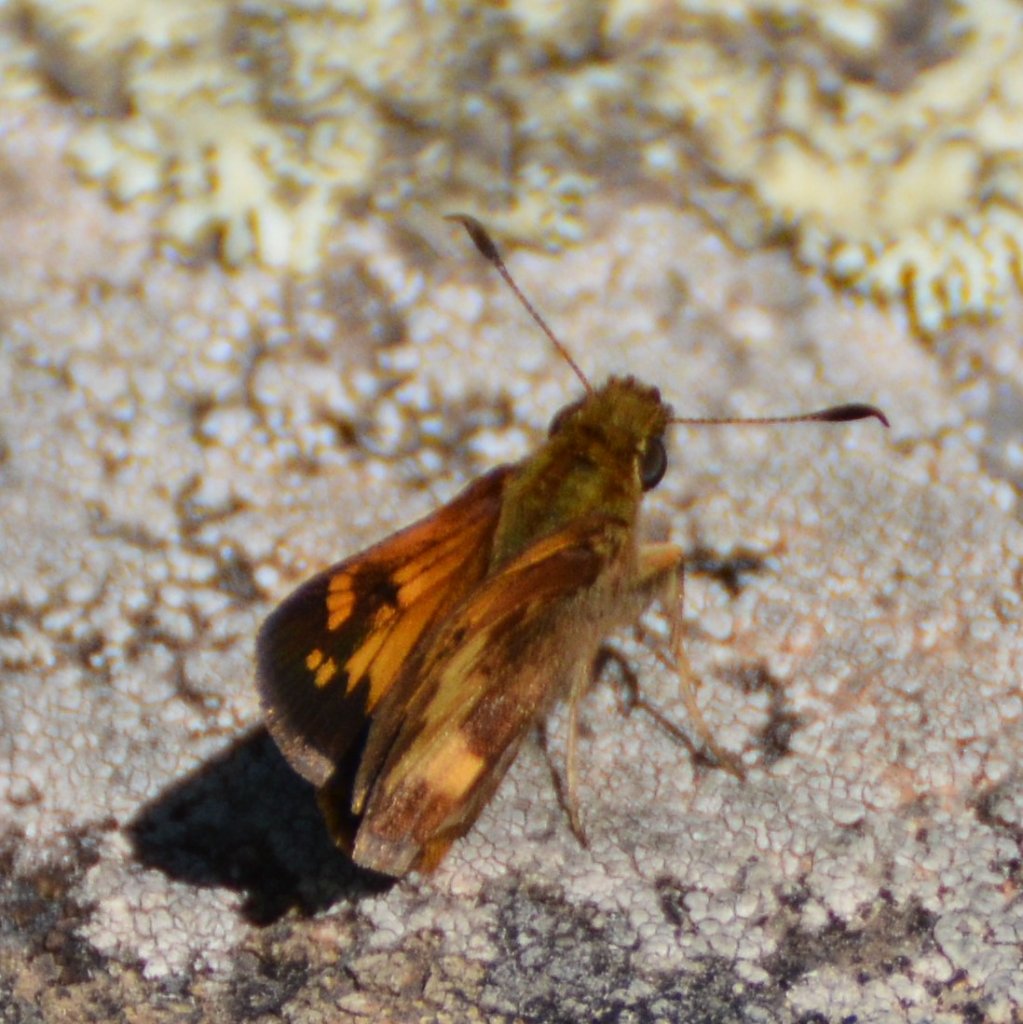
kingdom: Animalia
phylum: Arthropoda
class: Insecta
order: Lepidoptera
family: Hesperiidae
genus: Lon
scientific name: Lon hobomok
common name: Hobomok Skipper
